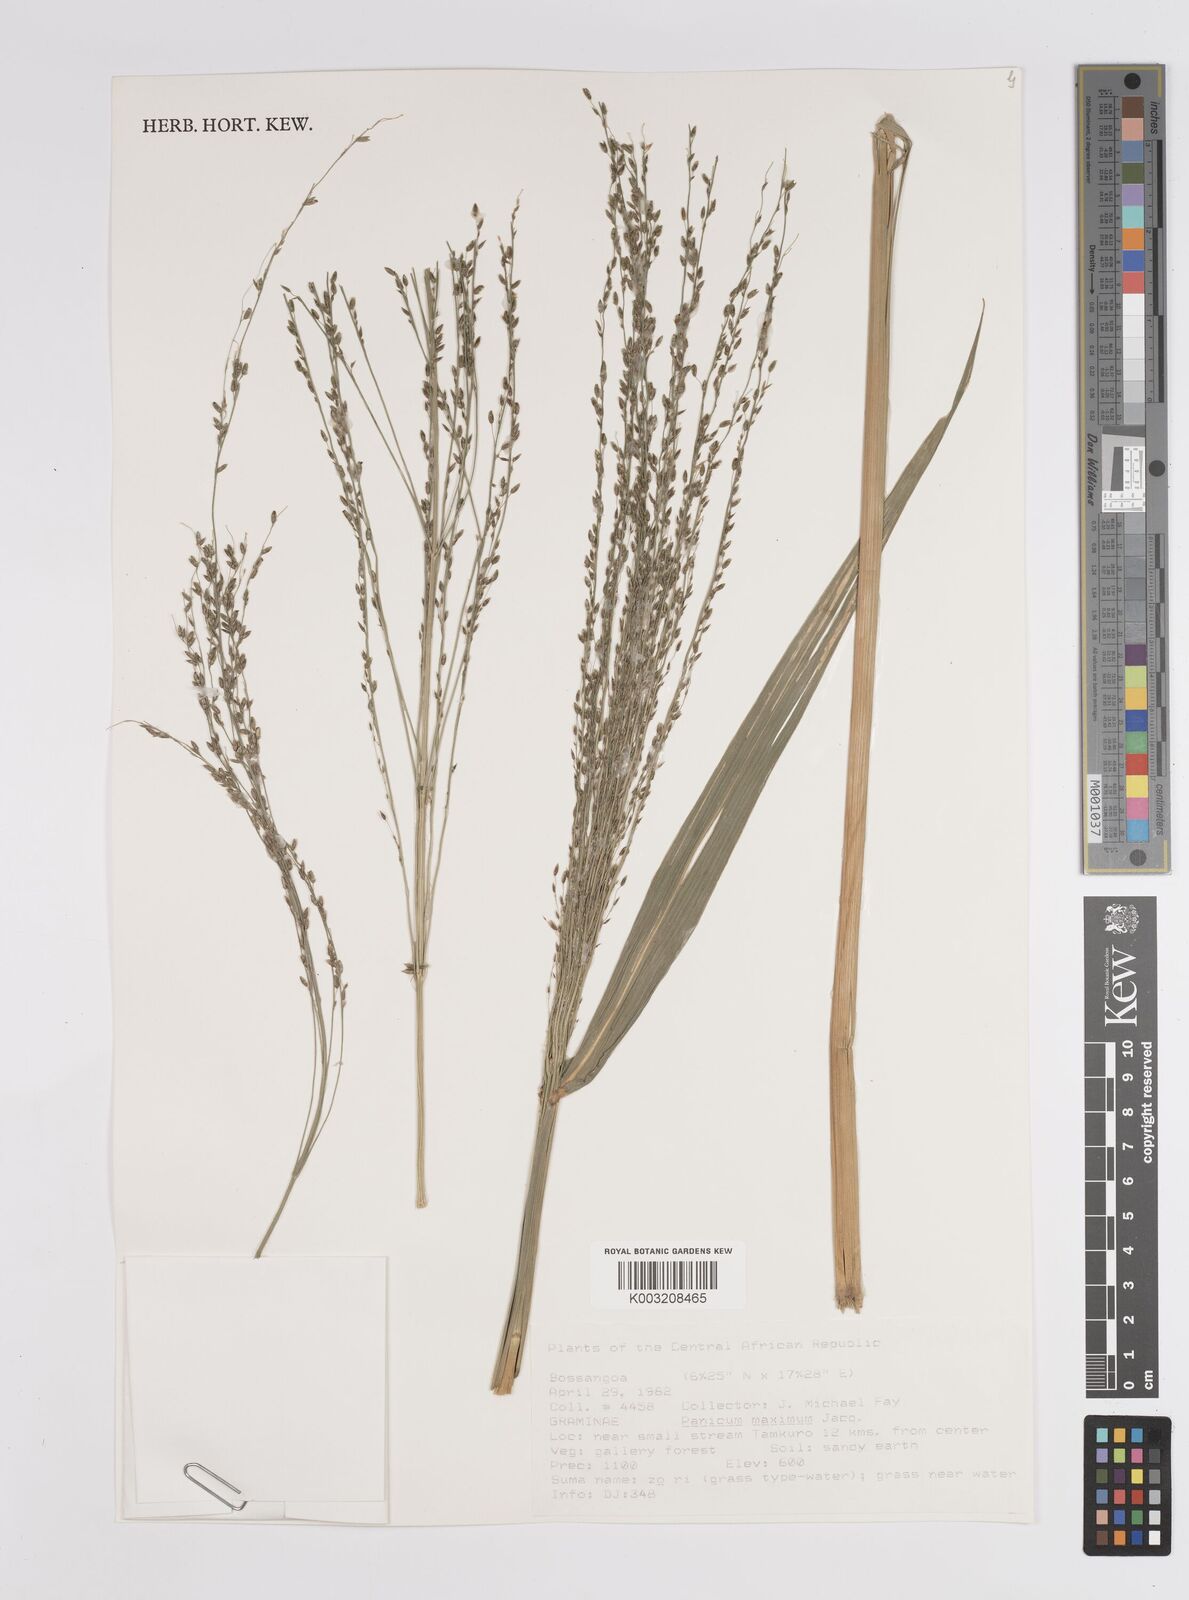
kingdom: Plantae
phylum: Tracheophyta
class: Liliopsida
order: Poales
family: Poaceae
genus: Megathyrsus
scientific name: Megathyrsus maximus
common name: Guineagrass
